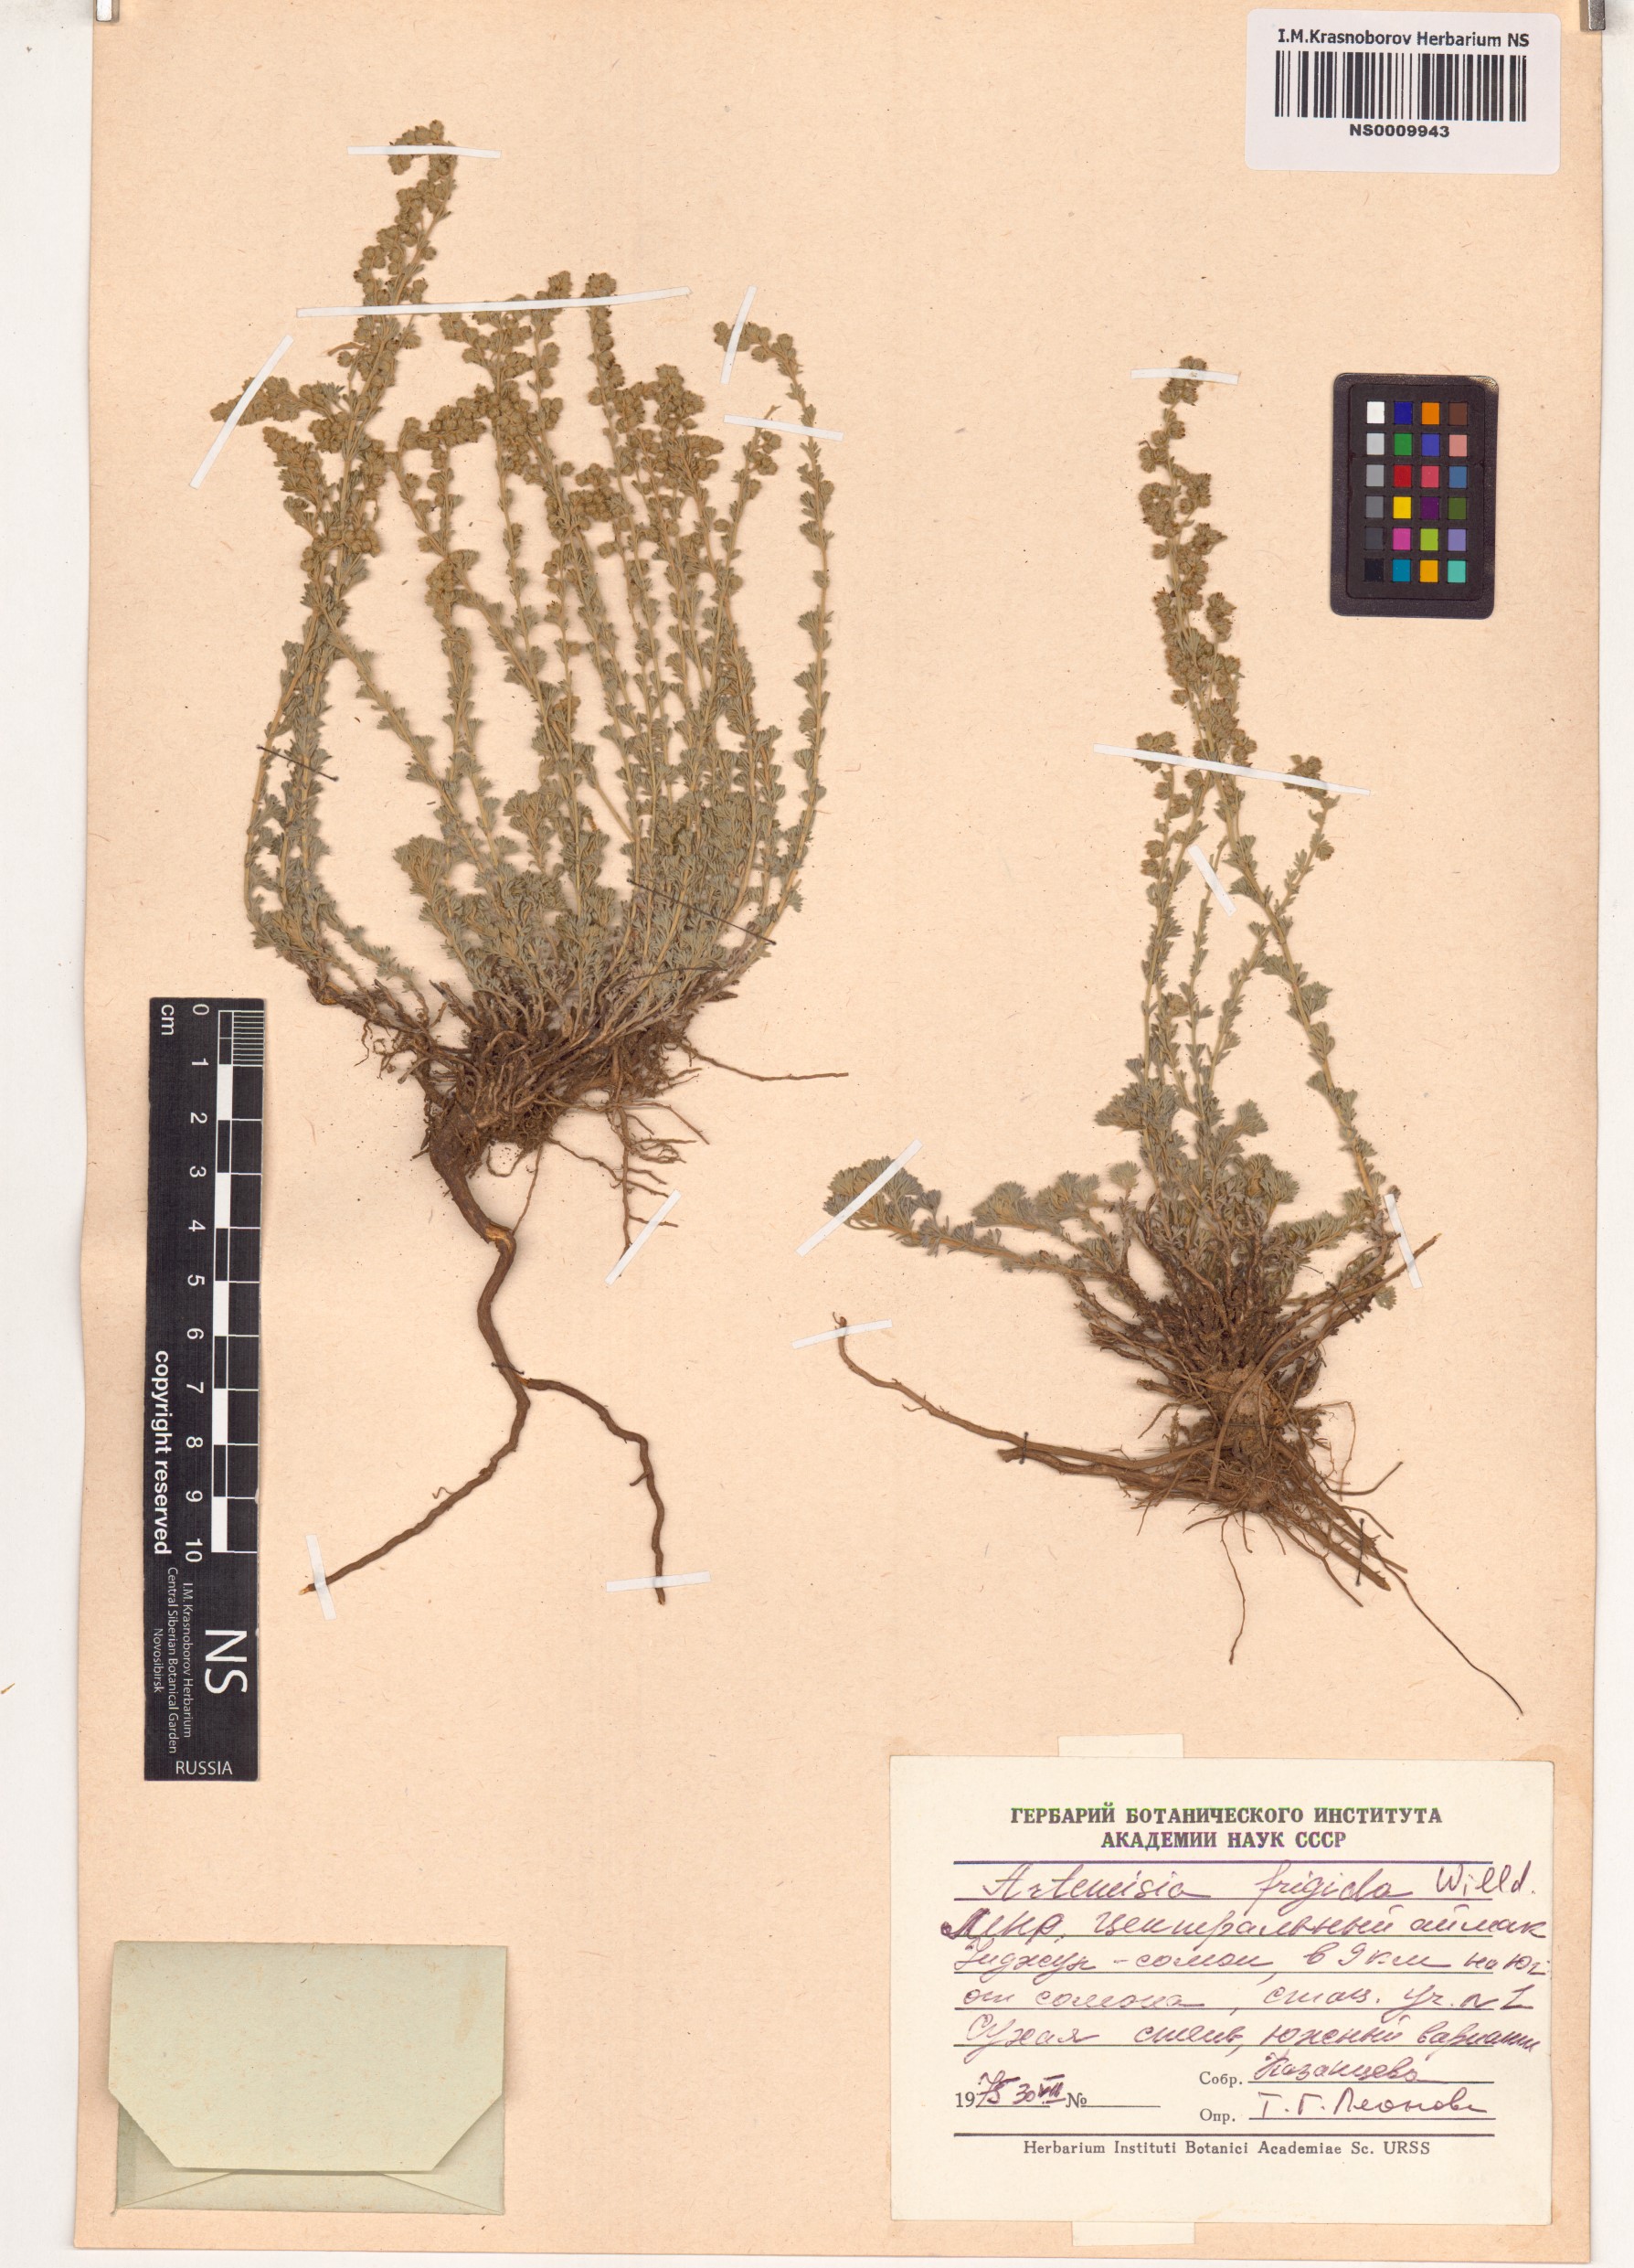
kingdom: Plantae
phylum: Tracheophyta
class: Magnoliopsida
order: Asterales
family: Asteraceae
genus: Artemisia
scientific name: Artemisia frigida
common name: Prairie sagewort
